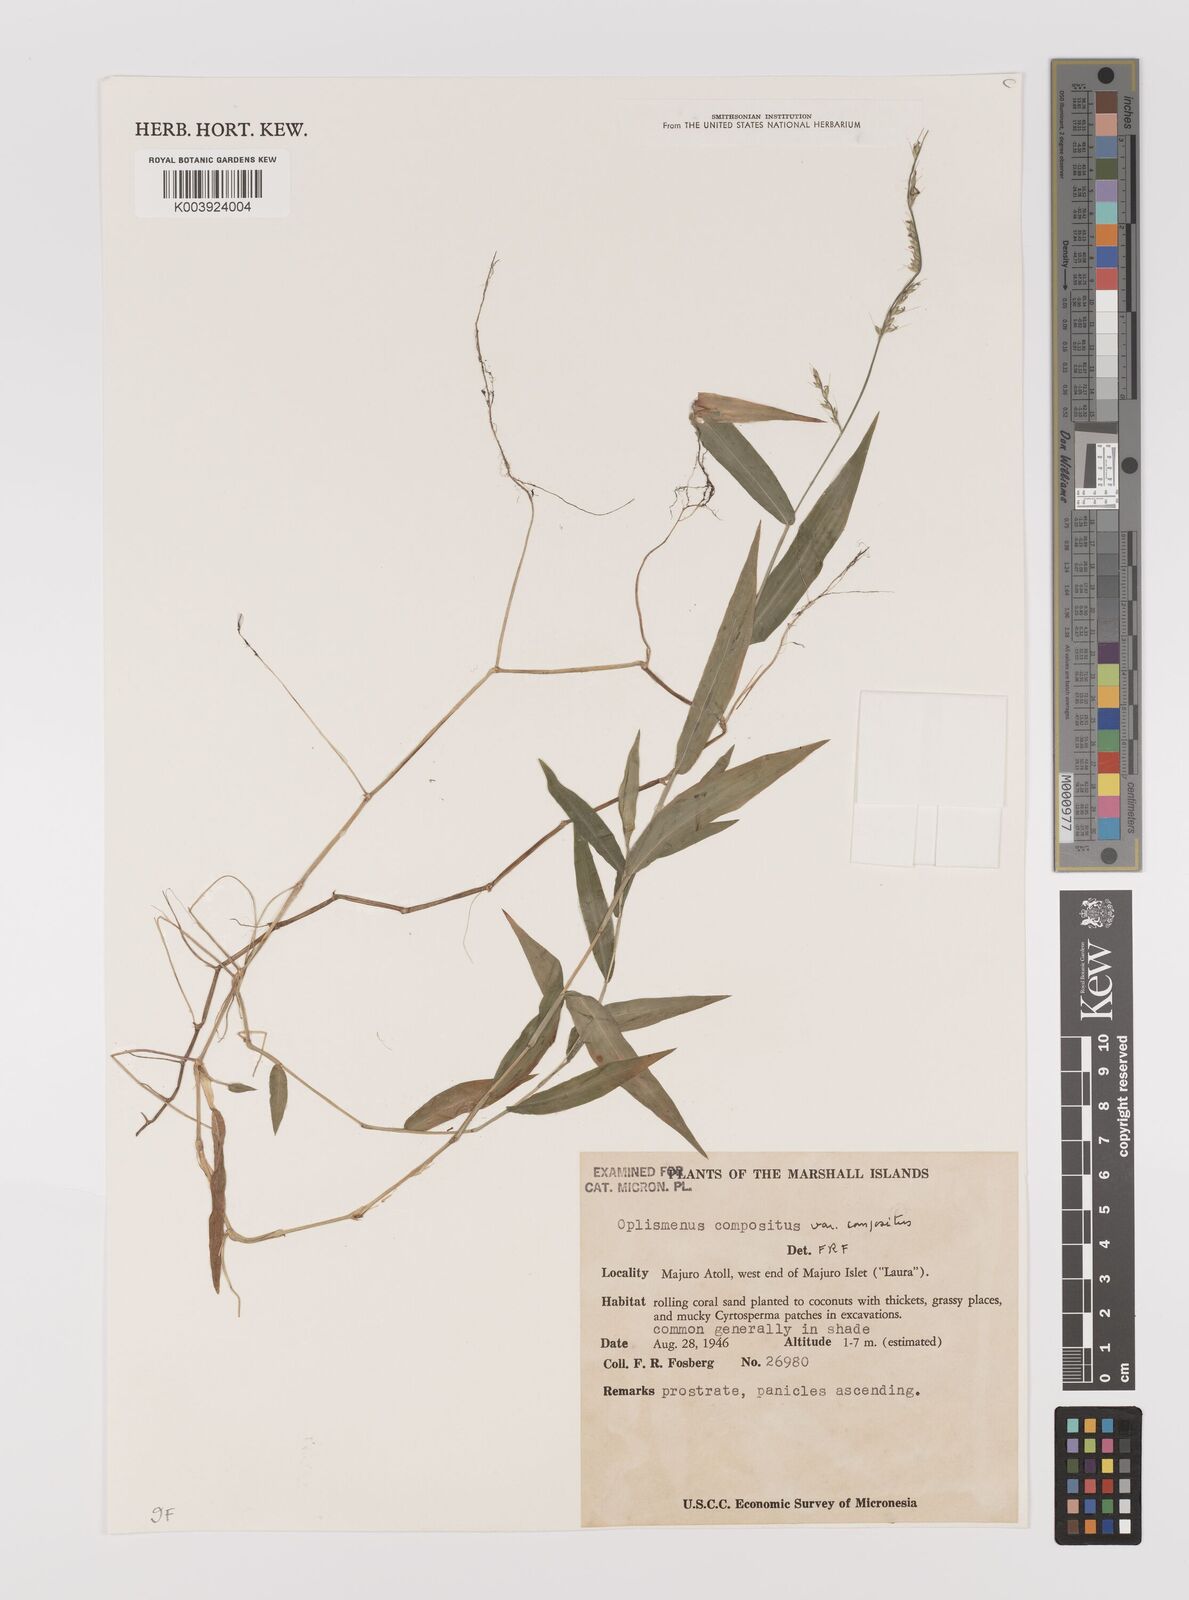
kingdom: Plantae
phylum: Tracheophyta
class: Liliopsida
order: Poales
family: Poaceae
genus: Oplismenus
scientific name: Oplismenus compositus
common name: Running mountain grass
